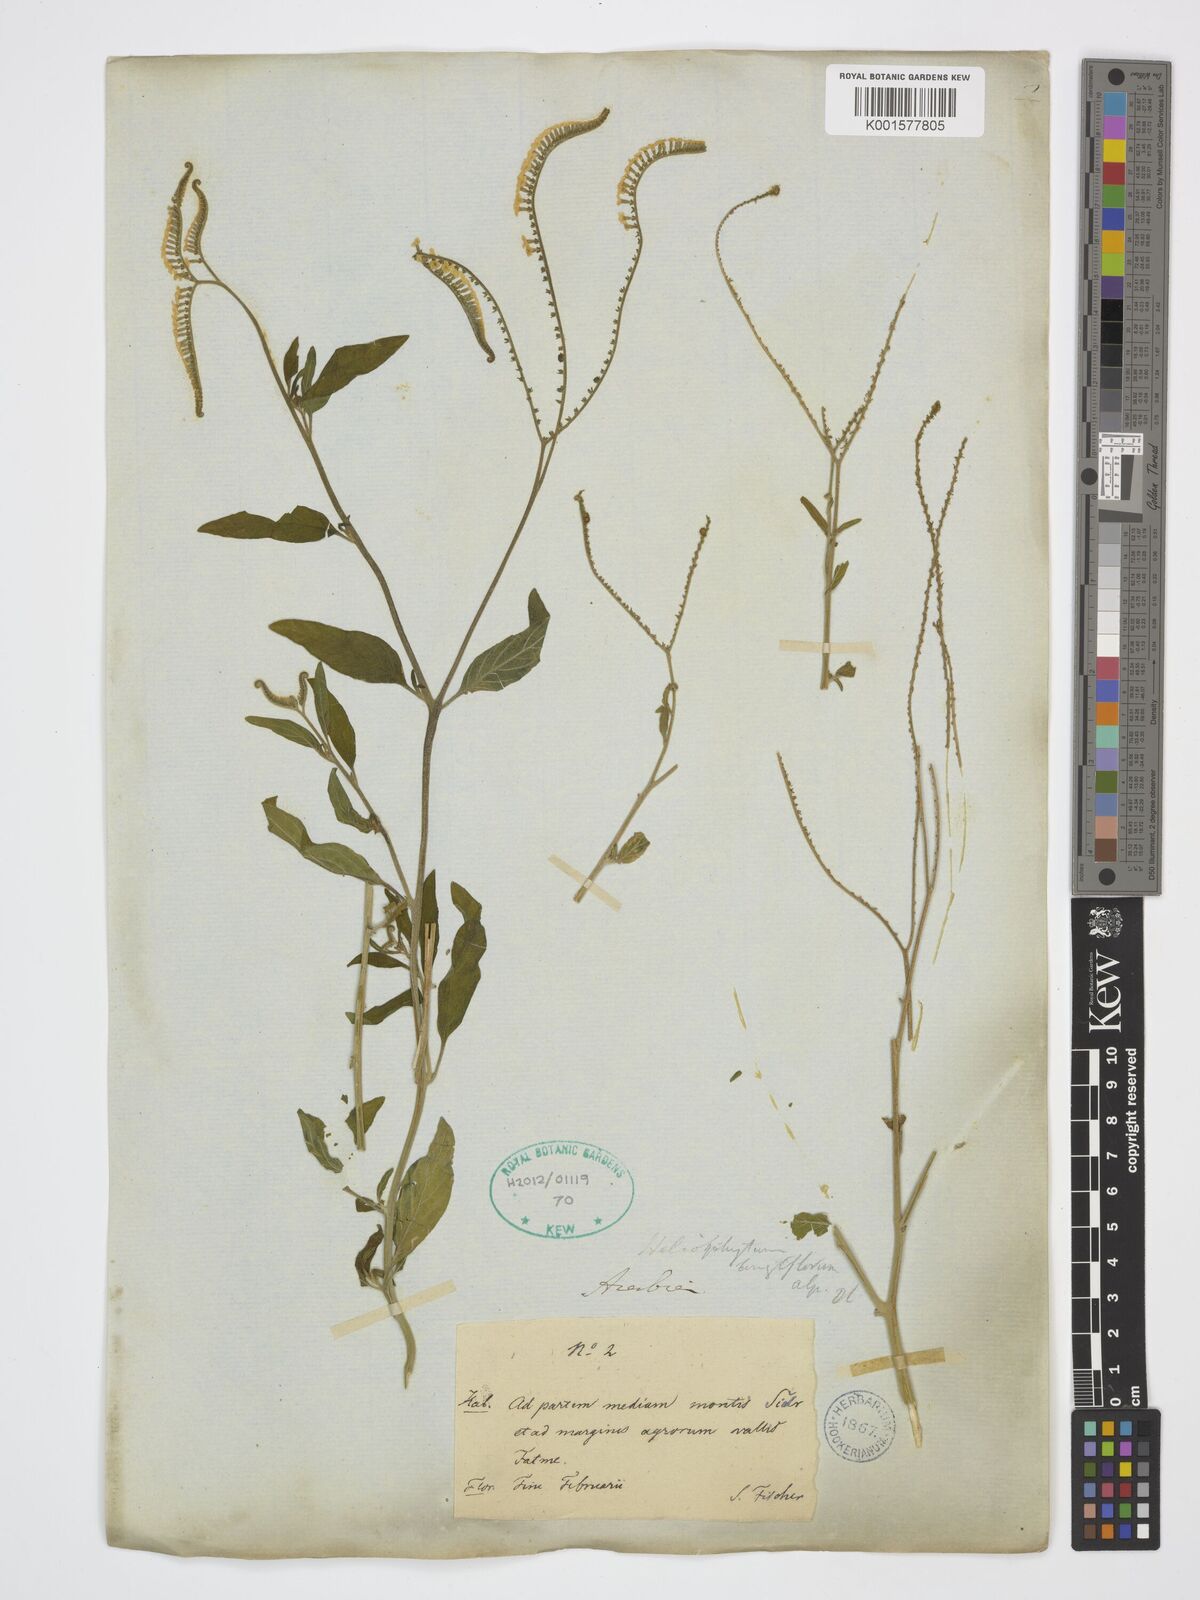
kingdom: Plantae
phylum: Tracheophyta
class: Magnoliopsida
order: Boraginales
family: Heliotropiaceae
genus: Heliotropium
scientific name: Heliotropium longiflorum
